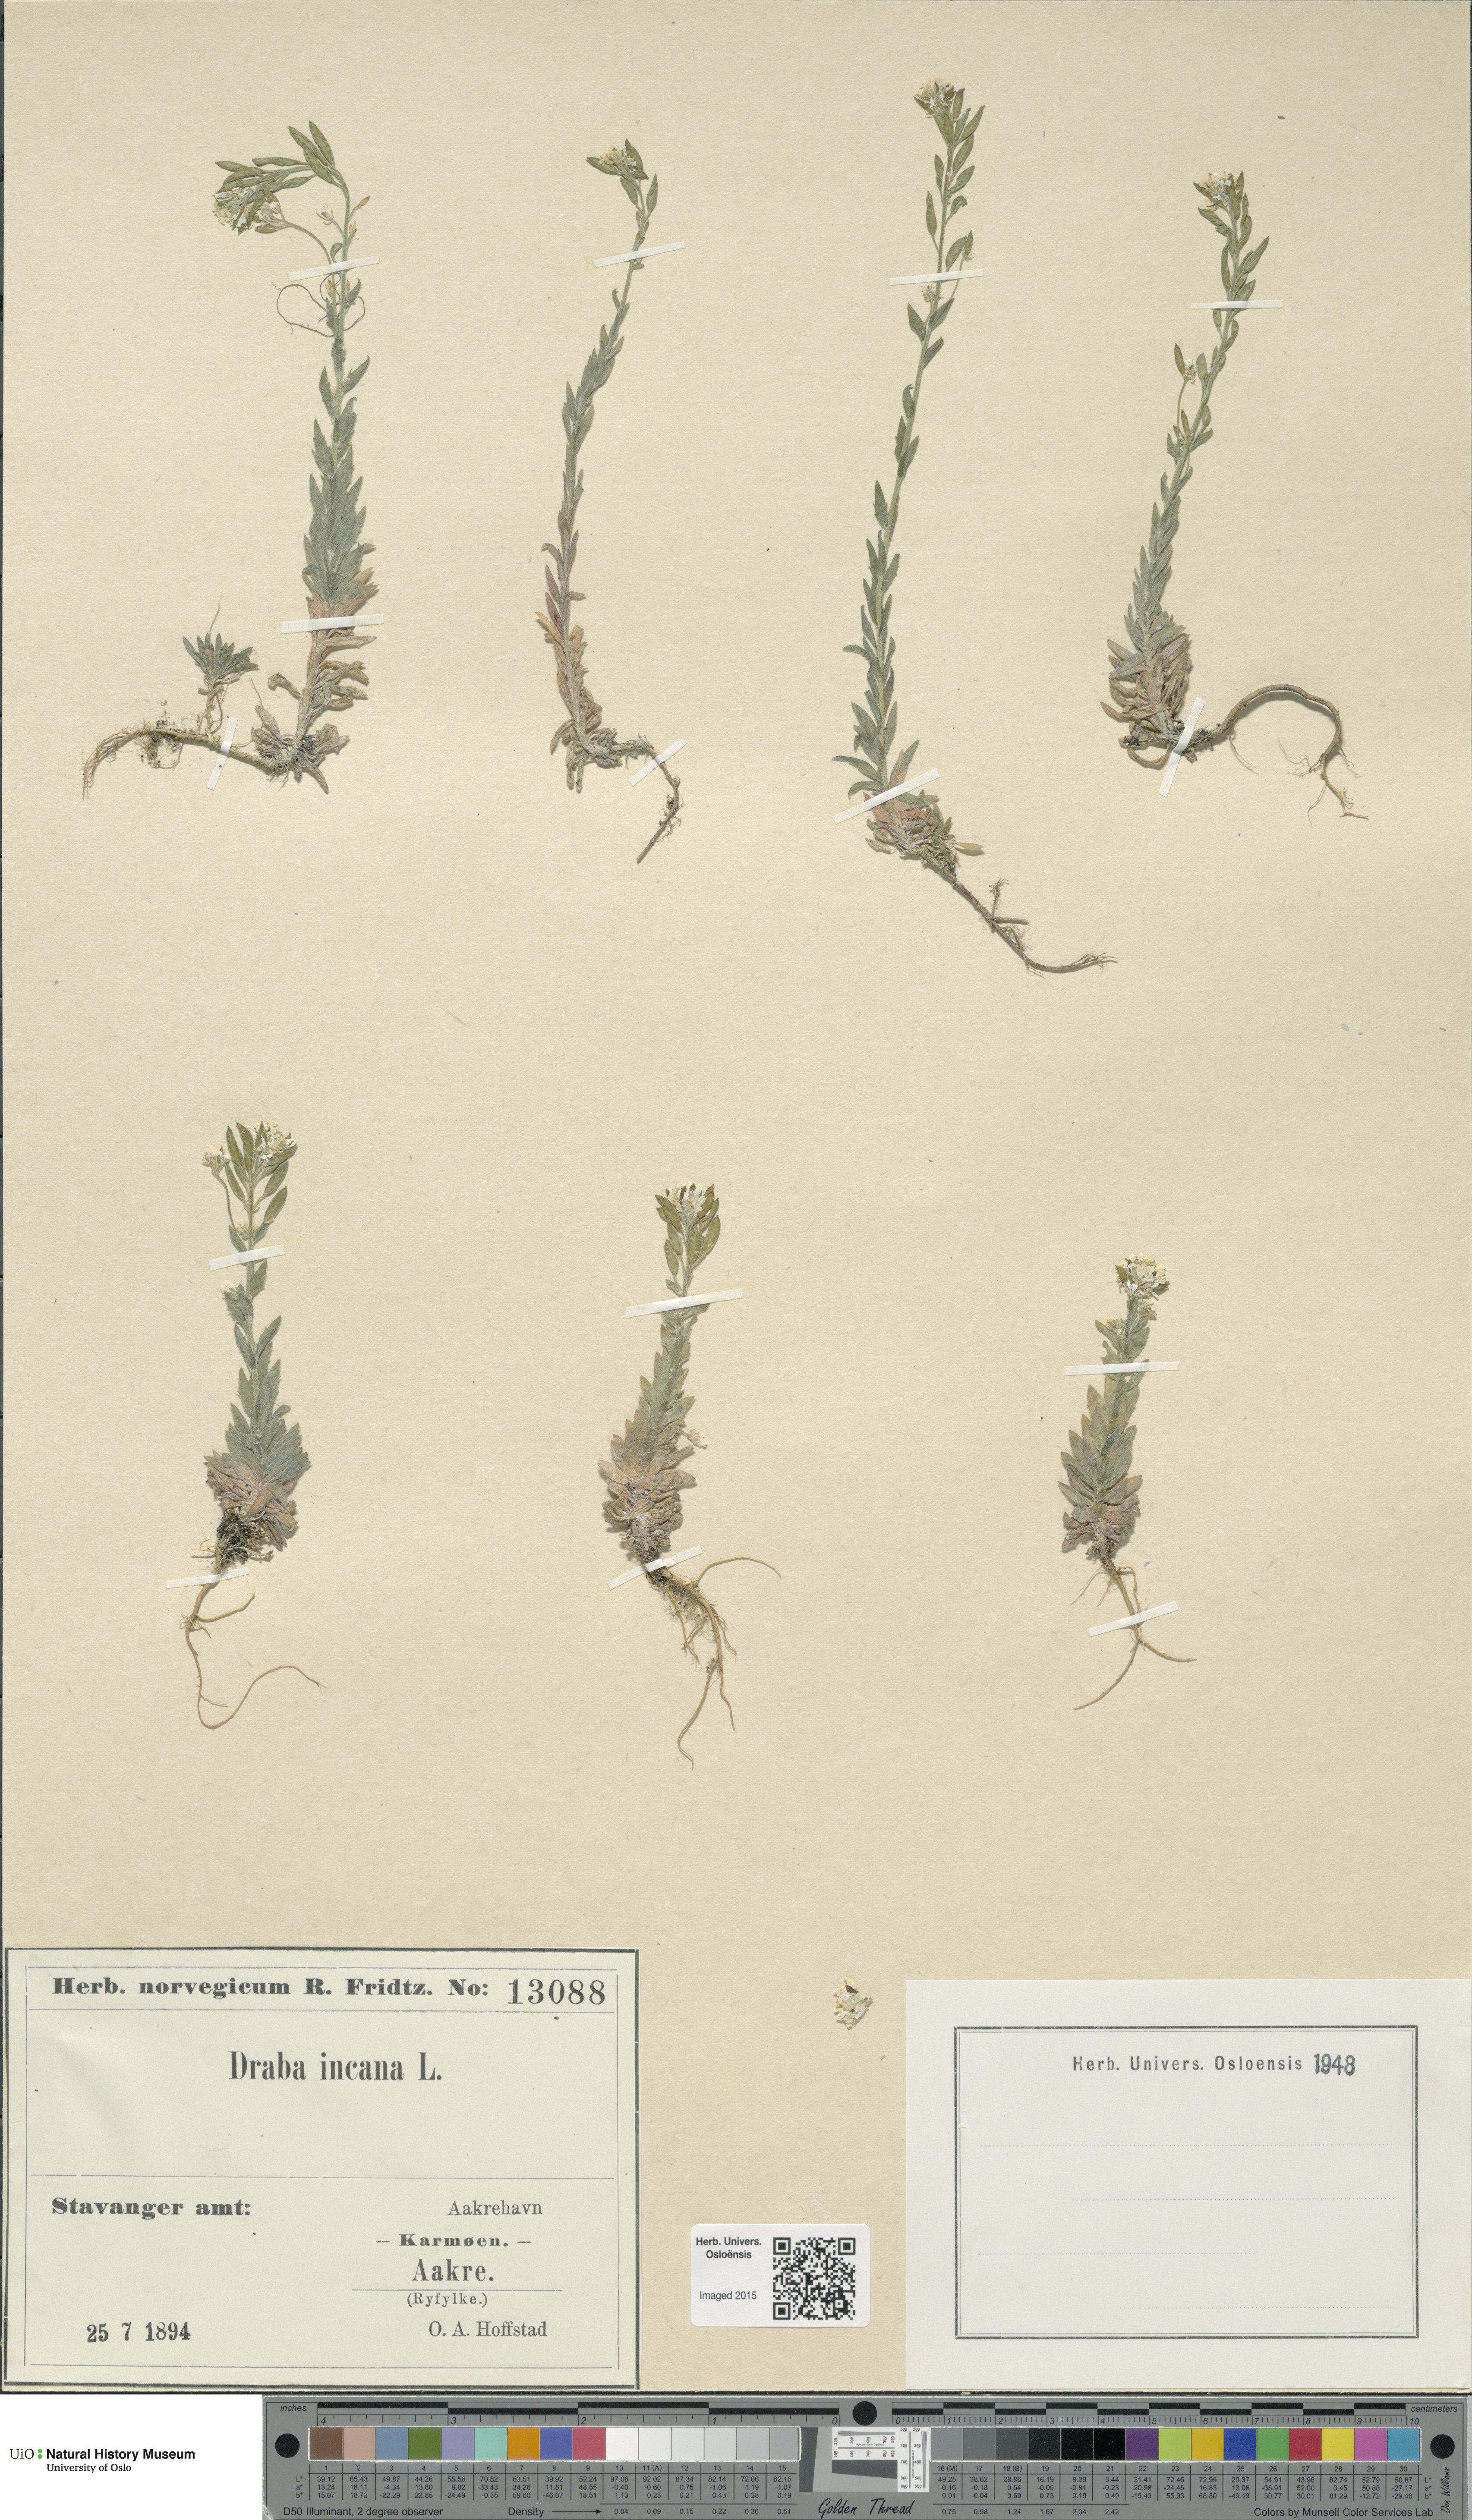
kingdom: Plantae
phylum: Tracheophyta
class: Magnoliopsida
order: Brassicales
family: Brassicaceae
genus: Draba
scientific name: Draba incana
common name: Hoary whitlow-grass
